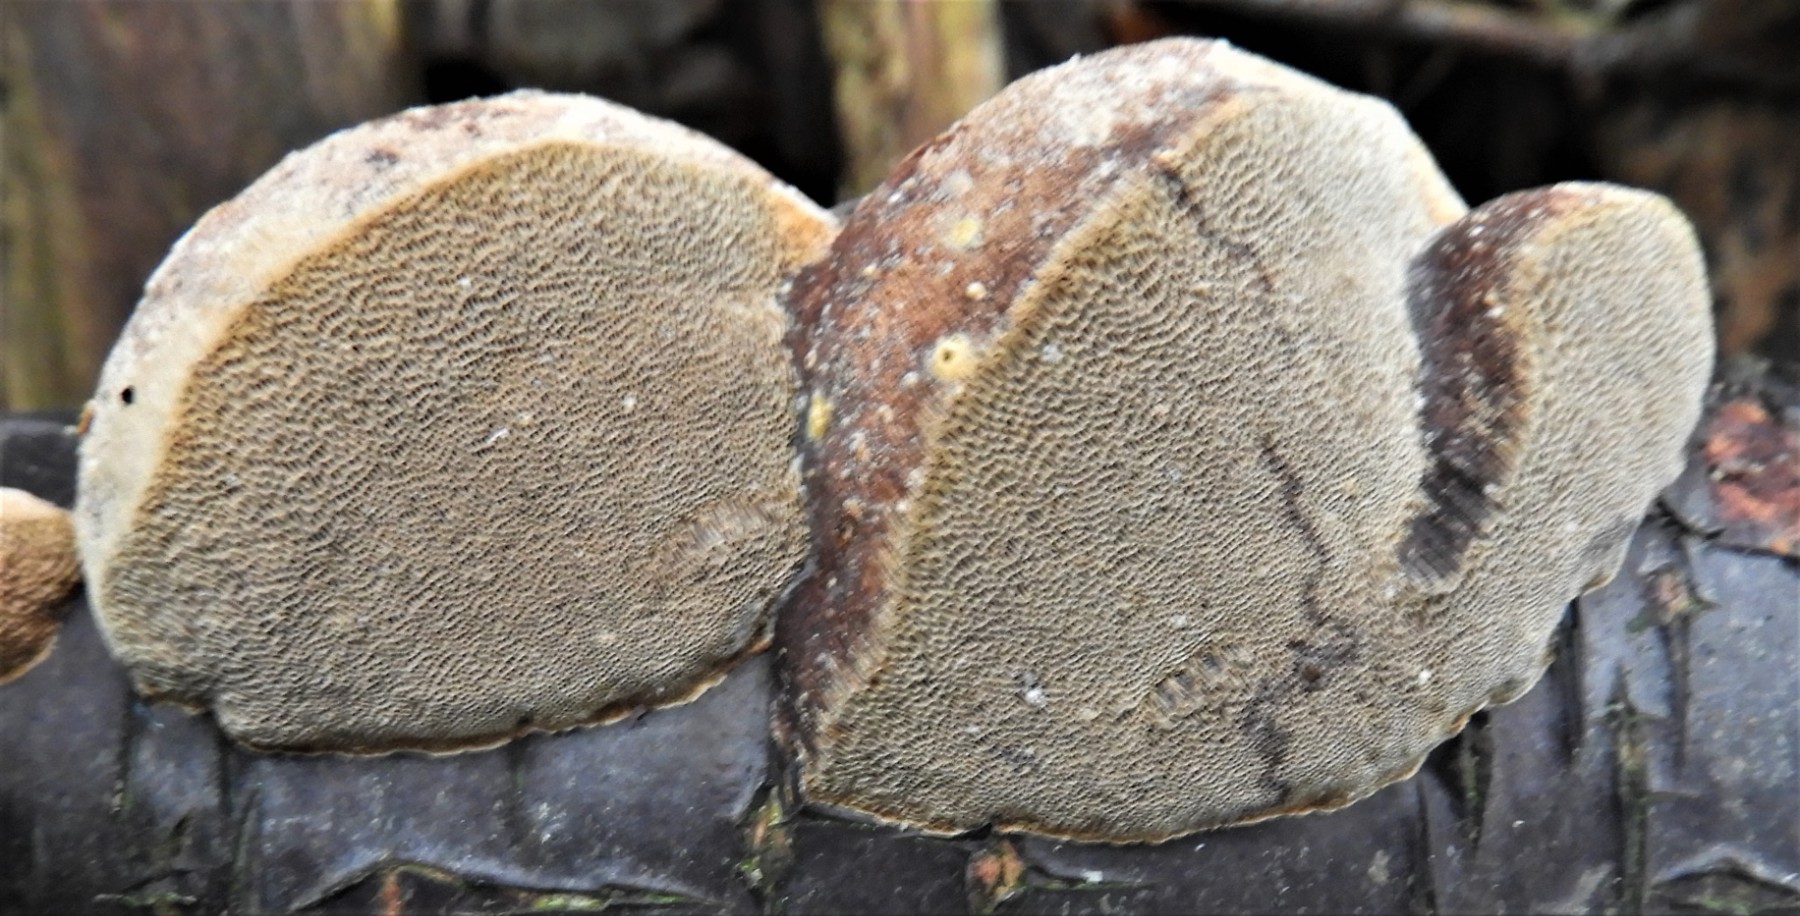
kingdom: Fungi
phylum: Basidiomycota
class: Agaricomycetes
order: Hymenochaetales
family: Hymenochaetaceae
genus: Phellinus
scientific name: Phellinus pomaceus
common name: blomme-ildporesvamp
